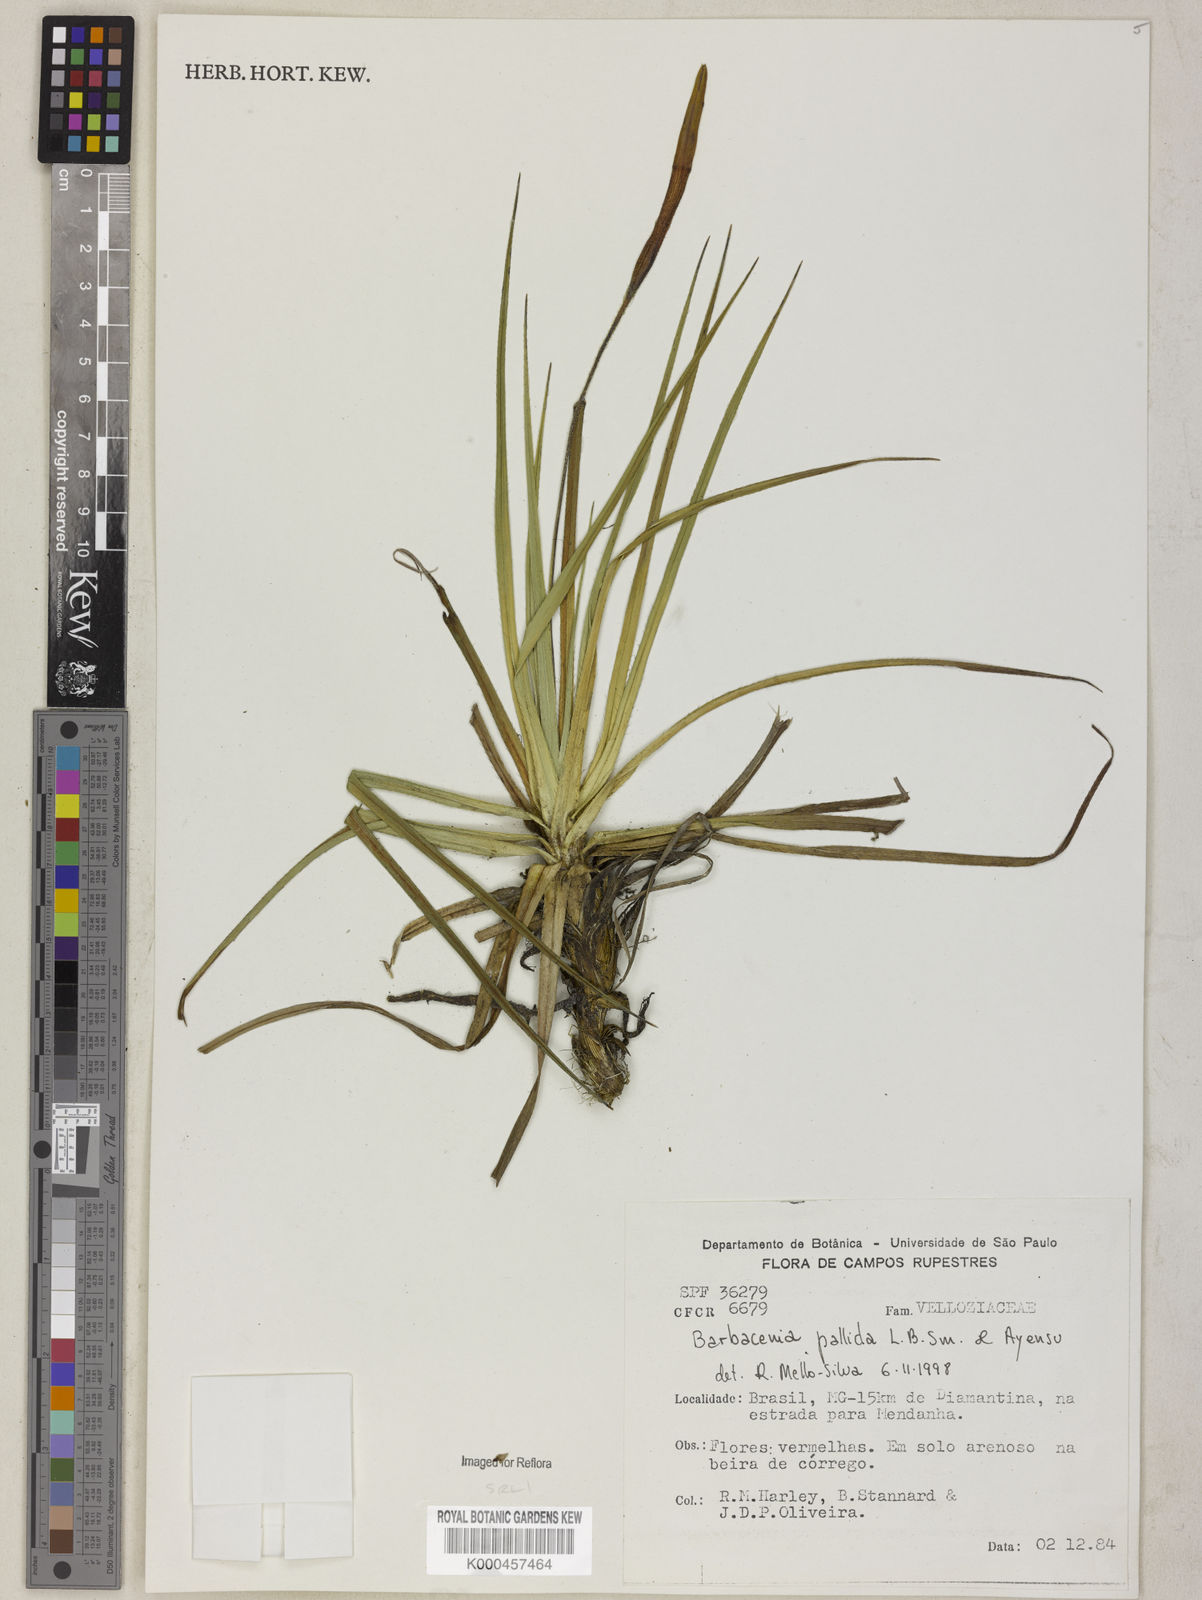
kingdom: Plantae
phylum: Tracheophyta
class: Liliopsida
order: Pandanales
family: Velloziaceae
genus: Barbacenia
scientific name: Barbacenia pallida
